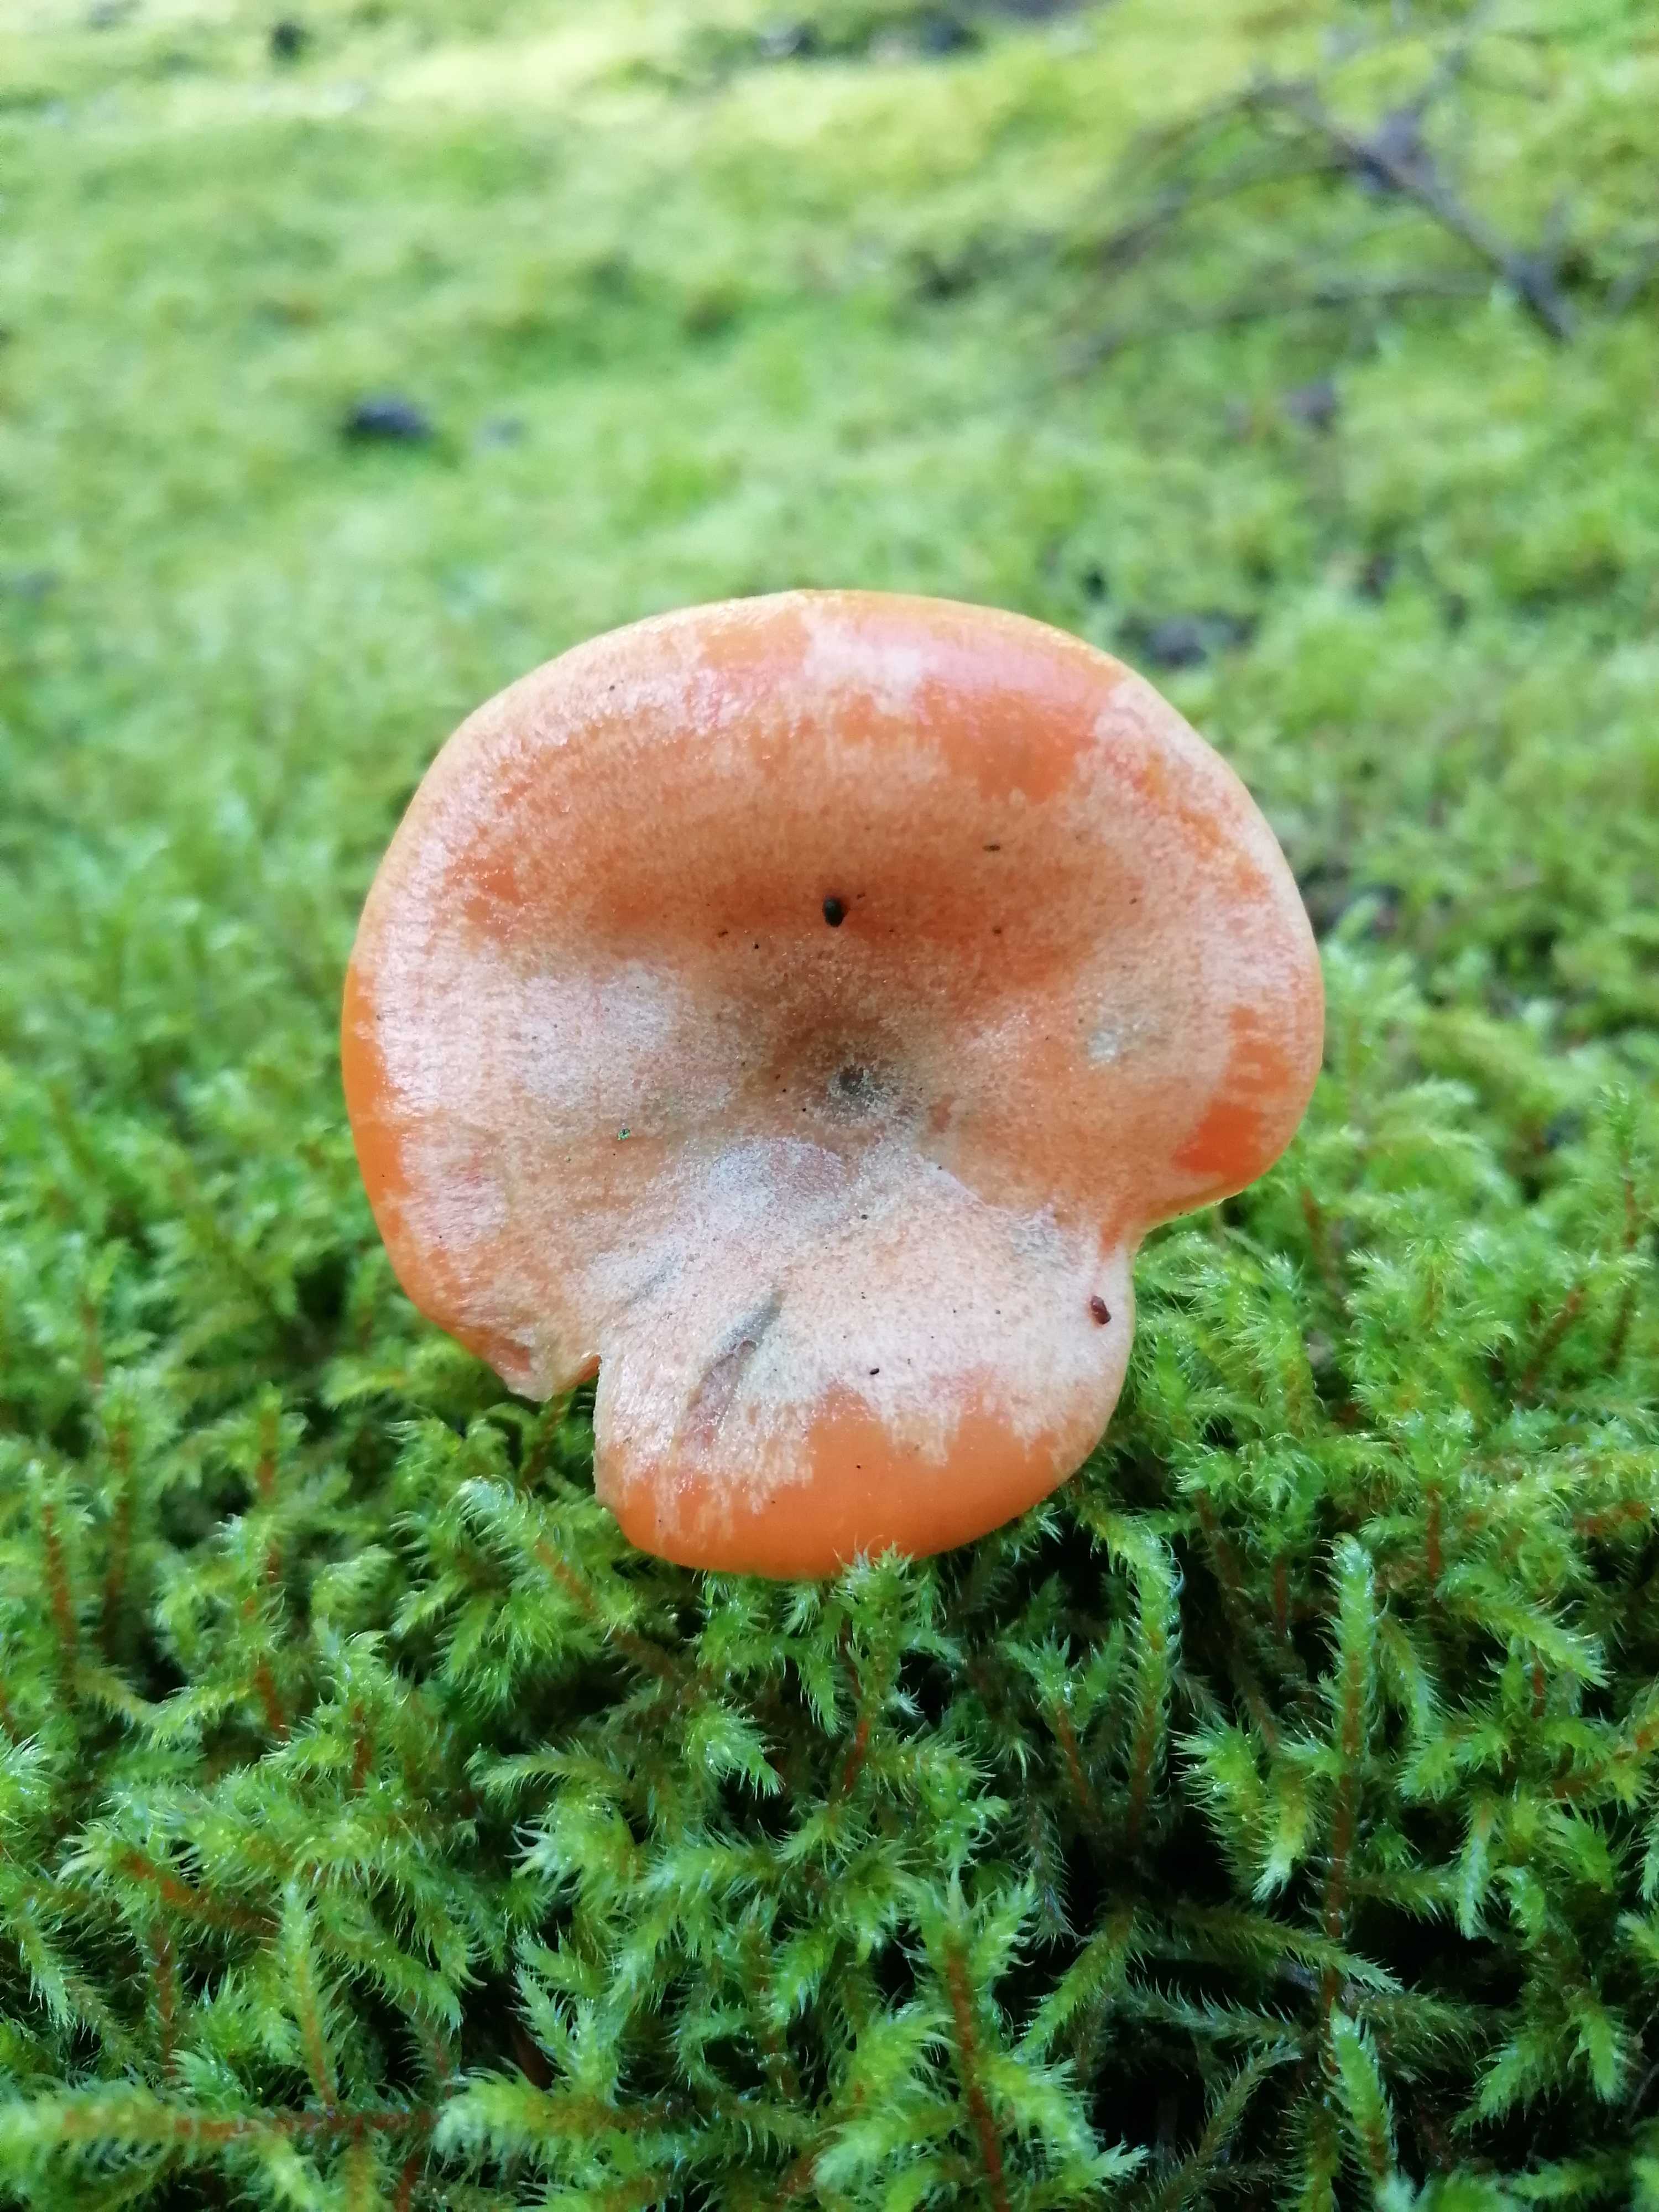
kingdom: Fungi
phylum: Basidiomycota
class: Agaricomycetes
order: Russulales
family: Russulaceae
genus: Lactarius
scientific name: Lactarius deterrimus
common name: gran-mælkehat
